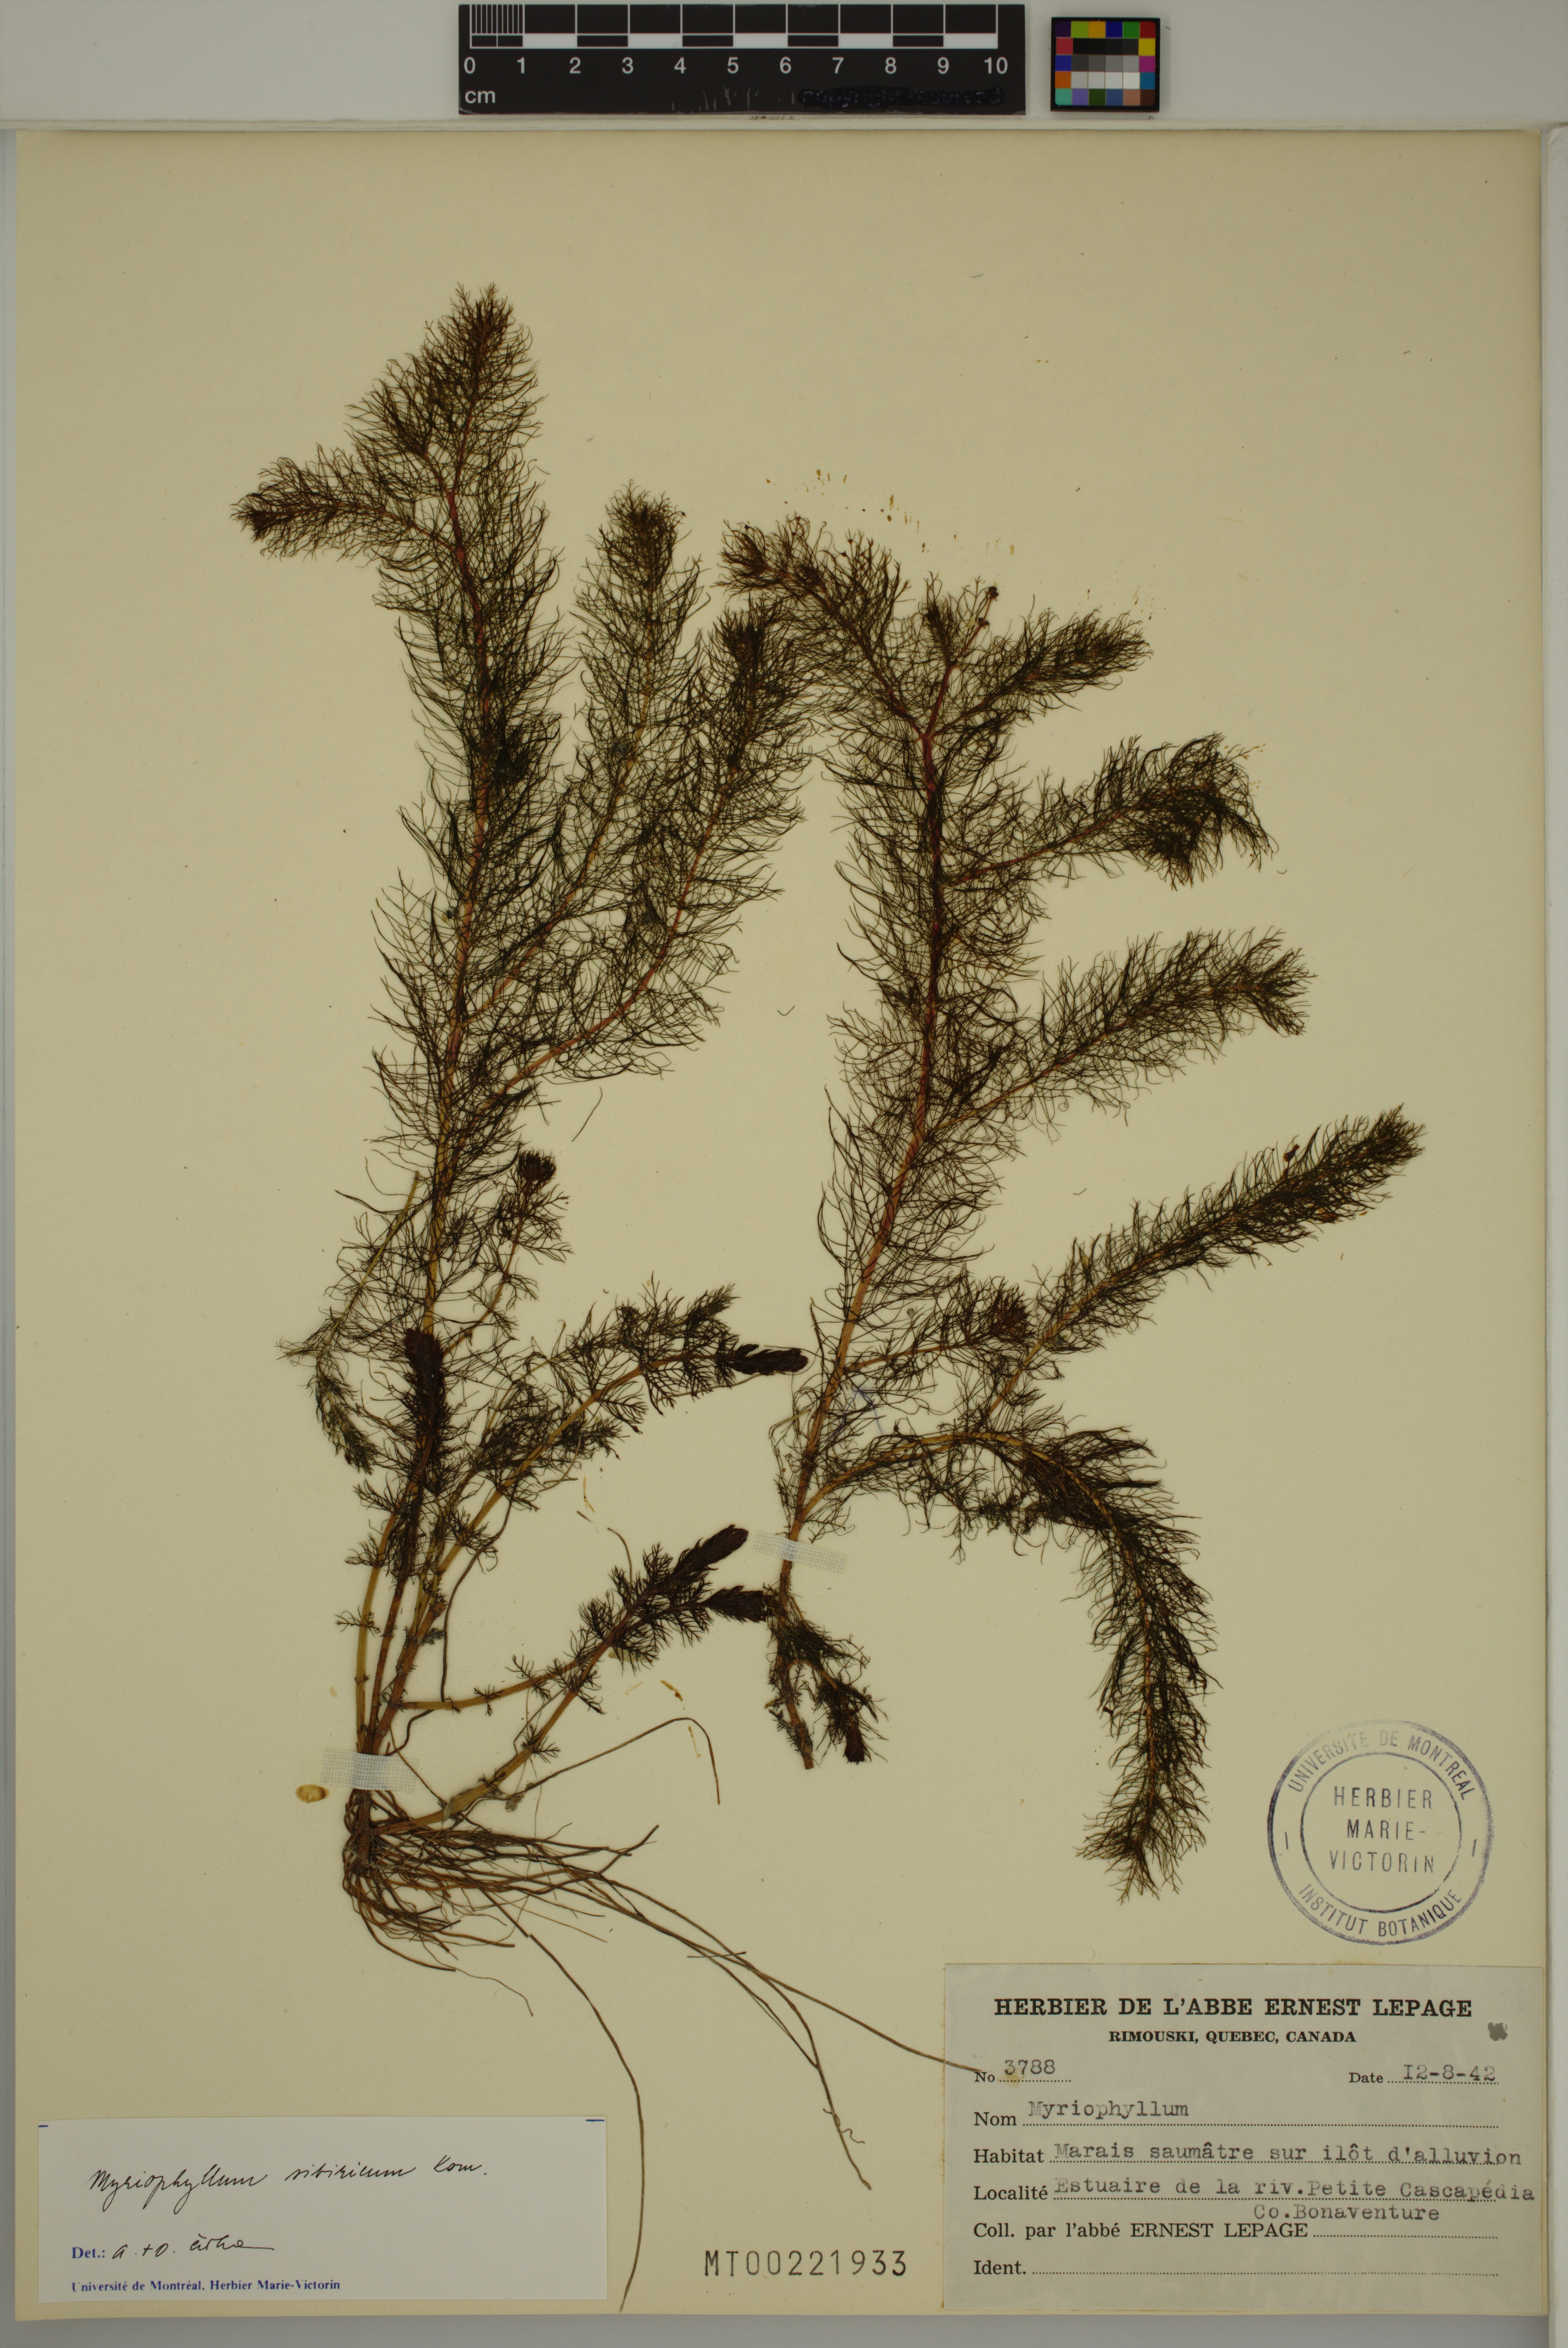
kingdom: Plantae
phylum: Tracheophyta
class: Magnoliopsida
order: Saxifragales
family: Haloragaceae
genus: Myriophyllum
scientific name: Myriophyllum sibiricum
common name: Siberian water-milfoil
